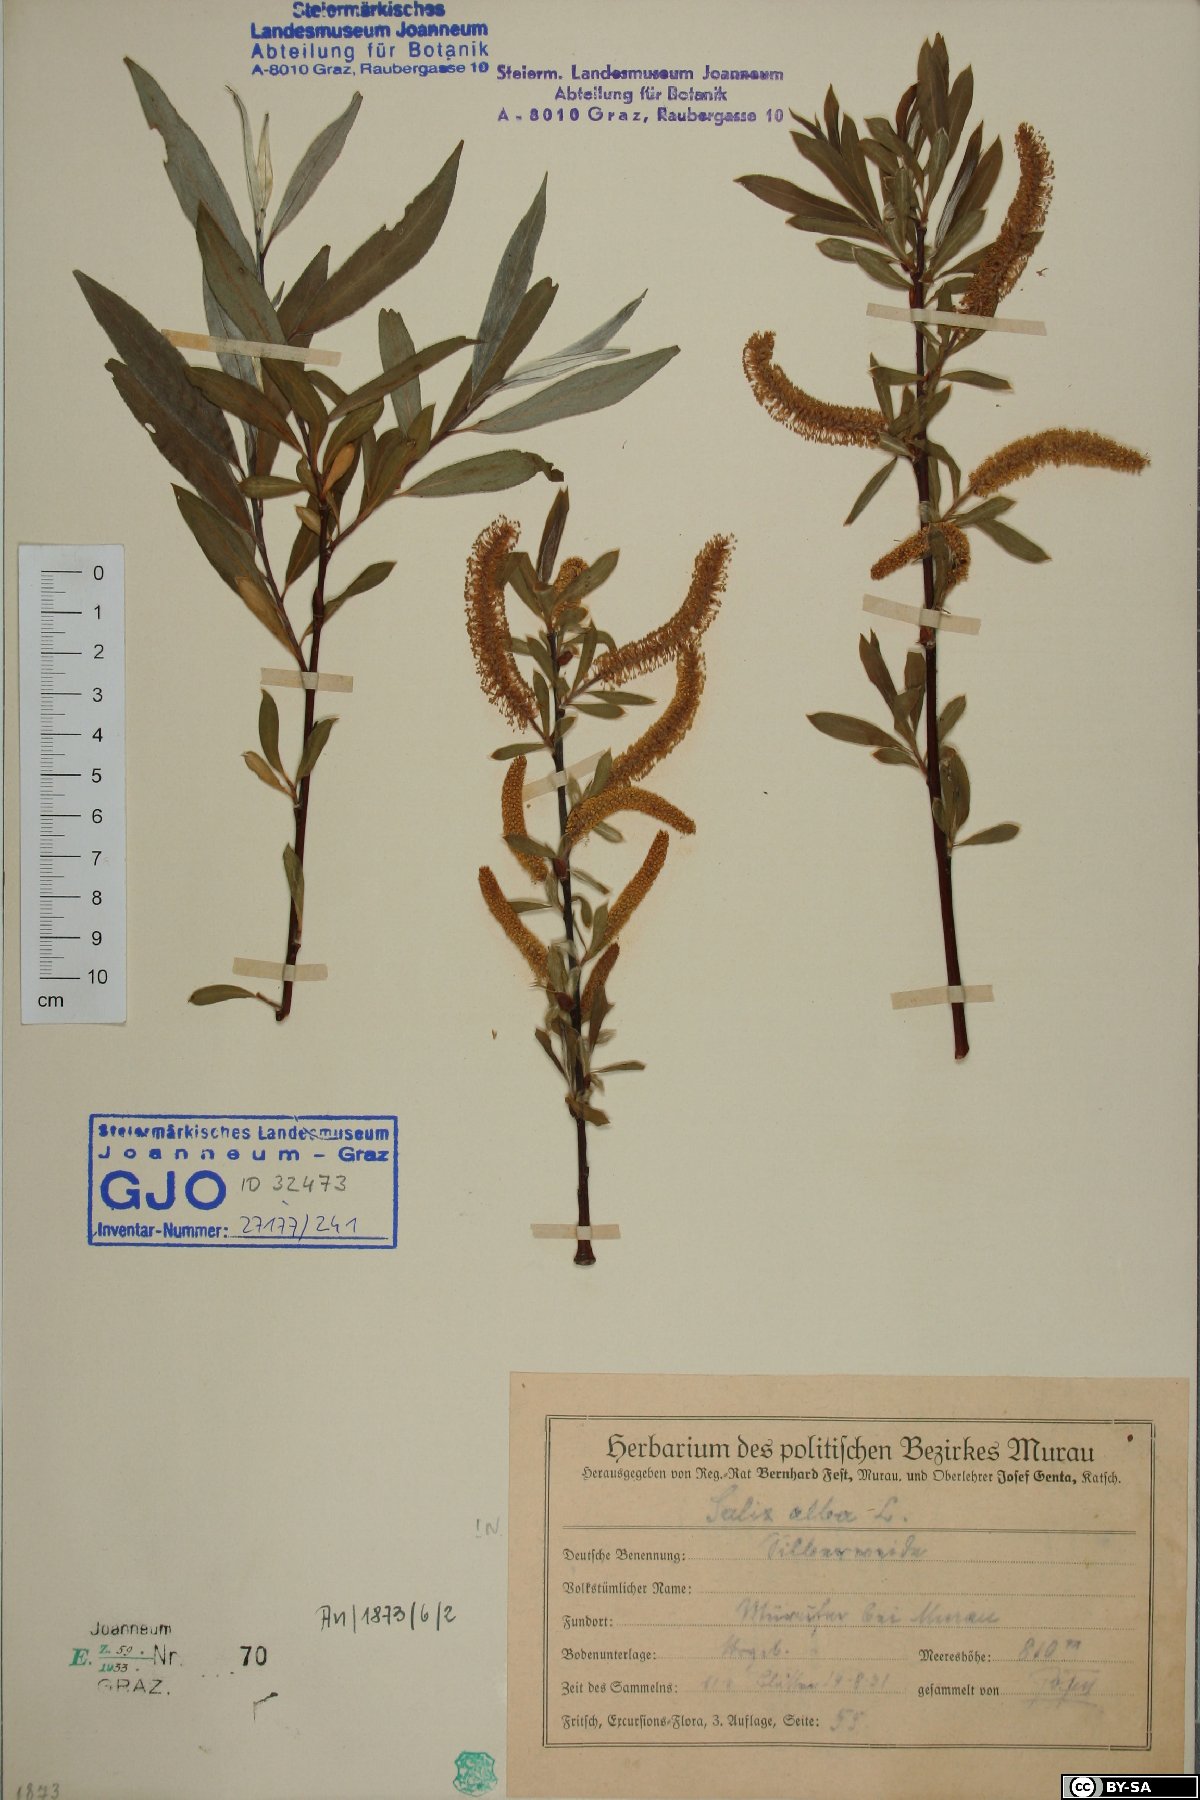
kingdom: Plantae
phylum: Tracheophyta
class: Magnoliopsida
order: Malpighiales
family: Salicaceae
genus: Salix
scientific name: Salix alba
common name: White willow
